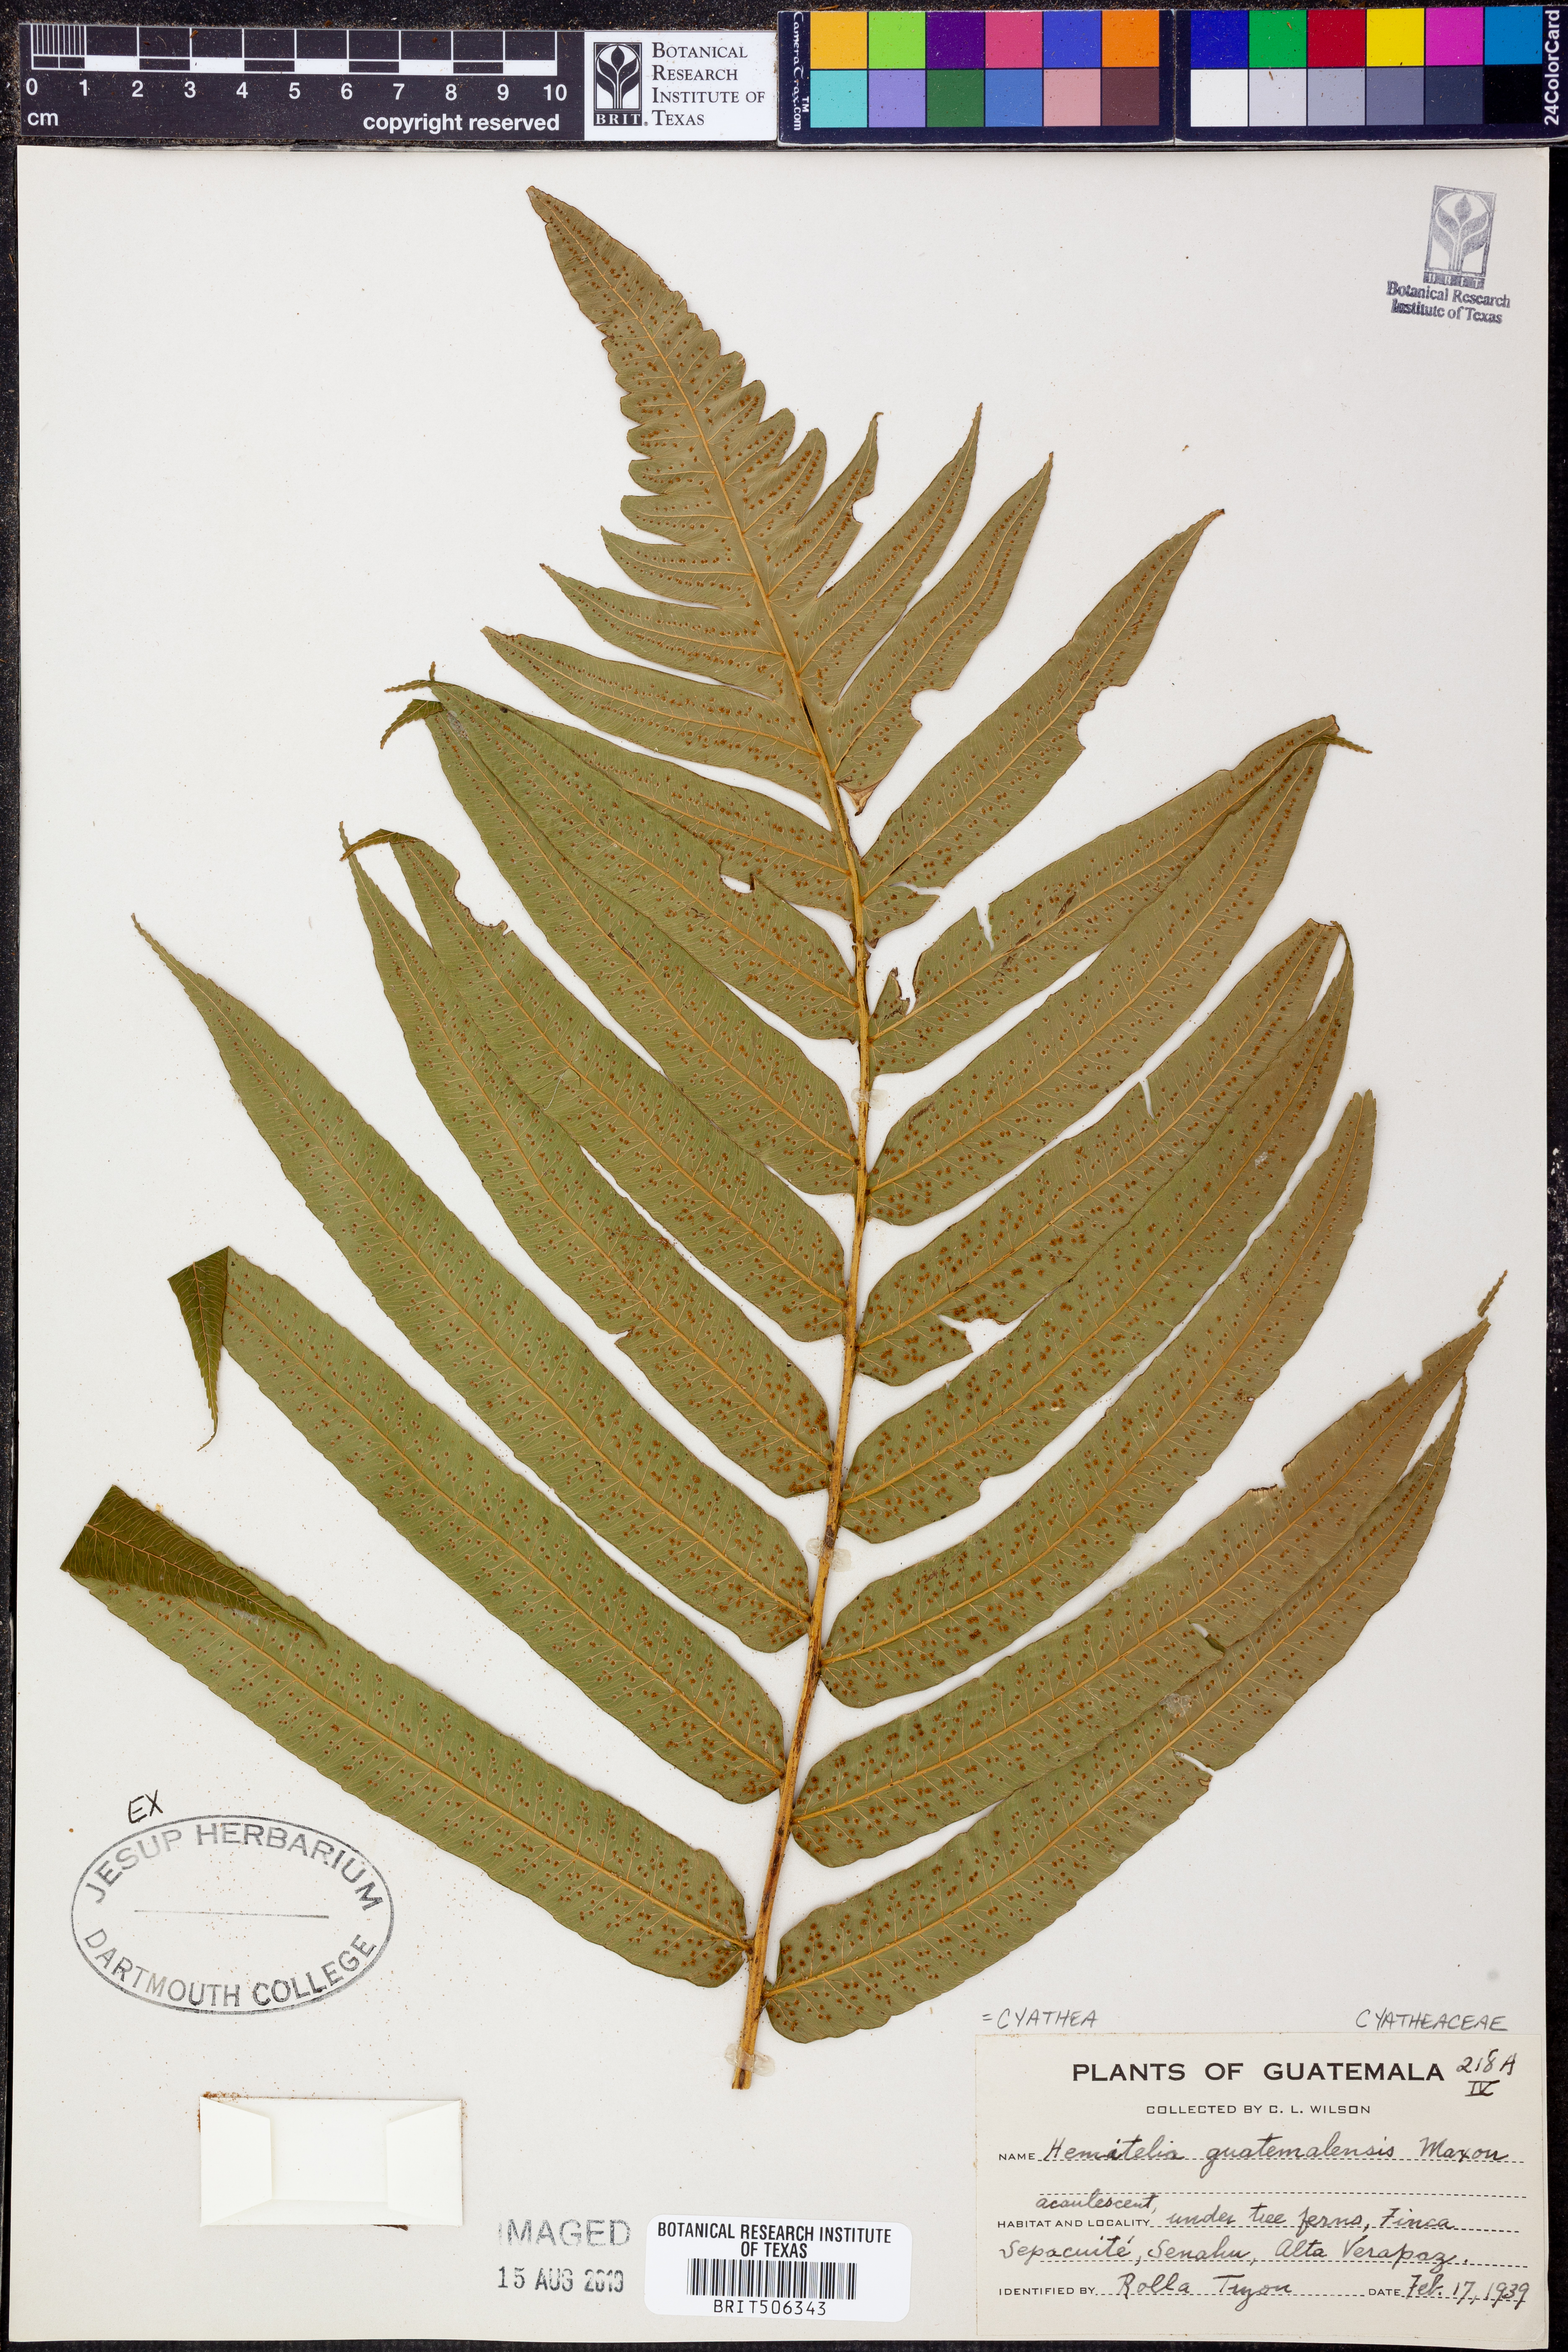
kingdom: Plantae
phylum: Tracheophyta
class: Polypodiopsida
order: Cyatheales
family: Cyatheaceae
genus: Cyathea
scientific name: Cyathea liebmannii
